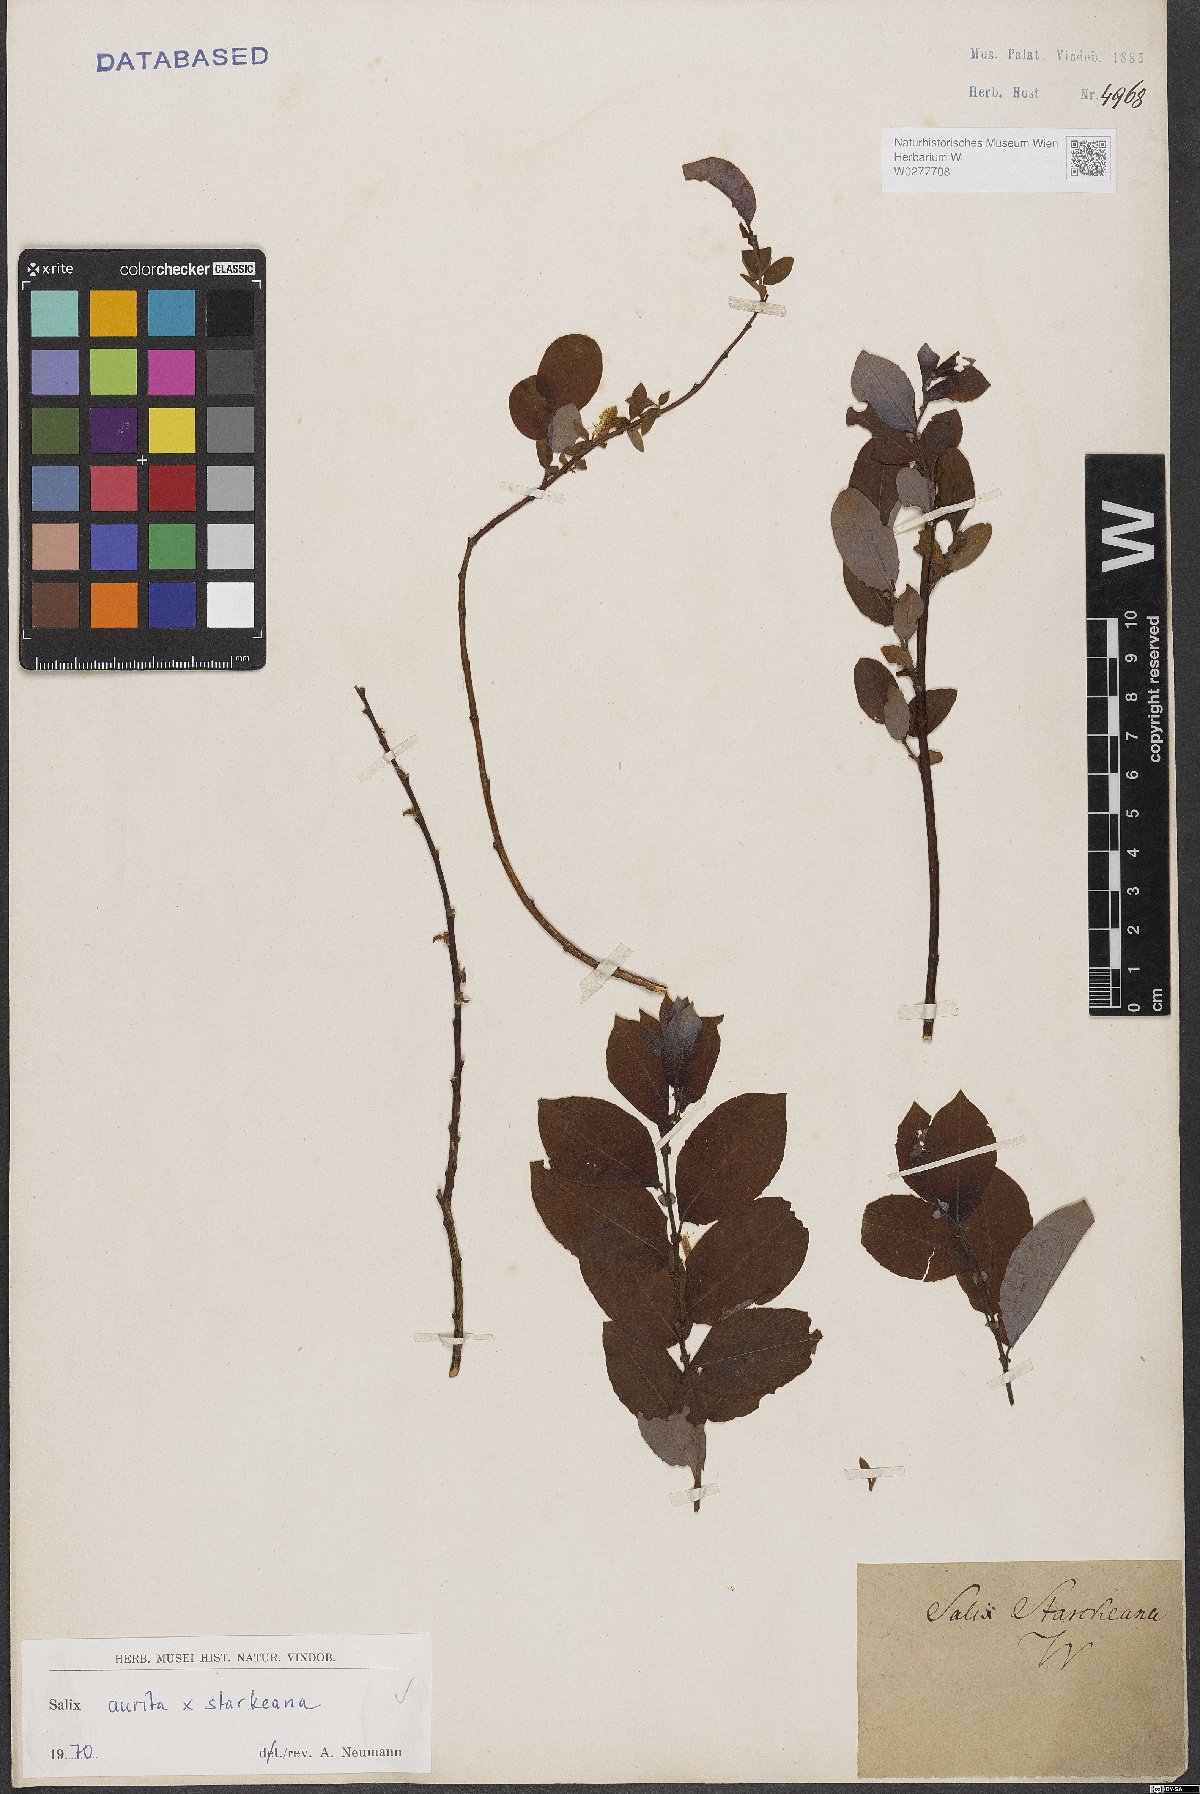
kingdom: Plantae
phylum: Tracheophyta
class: Magnoliopsida
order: Malpighiales
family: Salicaceae
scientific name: Salicaceae
